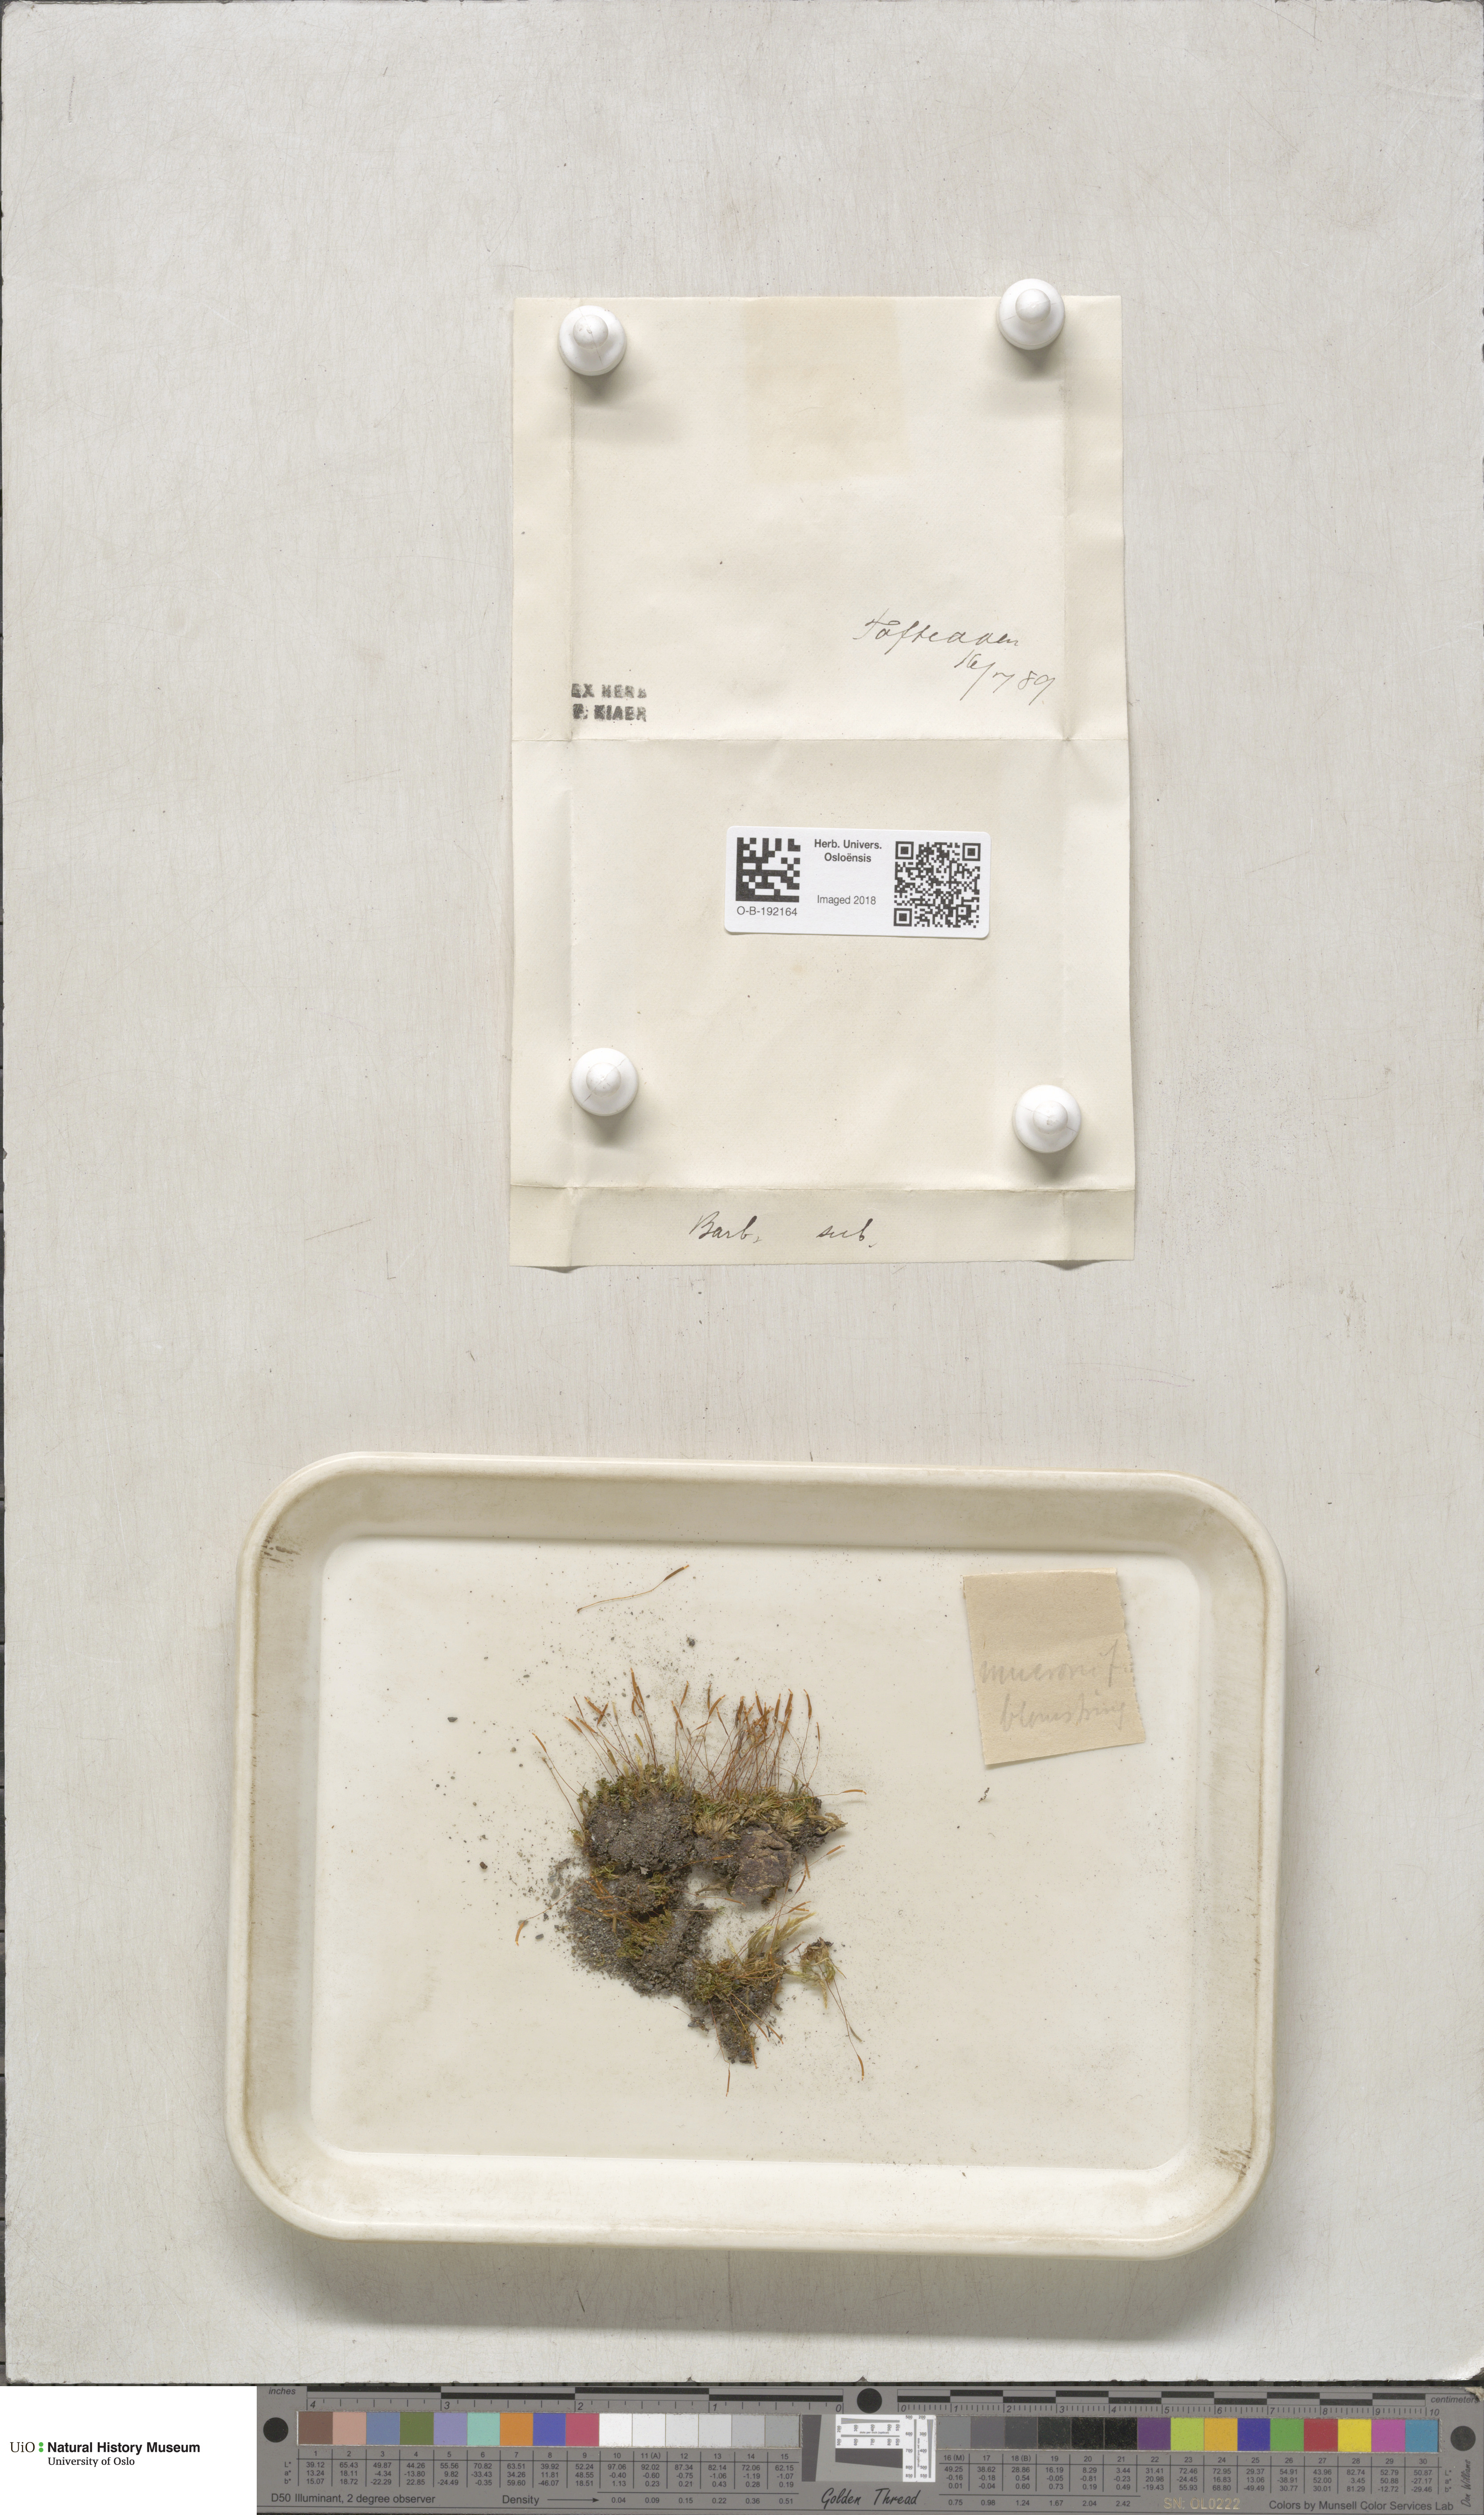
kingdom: Plantae
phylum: Bryophyta
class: Bryopsida
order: Pottiales
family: Pottiaceae
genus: Tortula
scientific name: Tortula mucronifolia
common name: Mucronate screw moss
